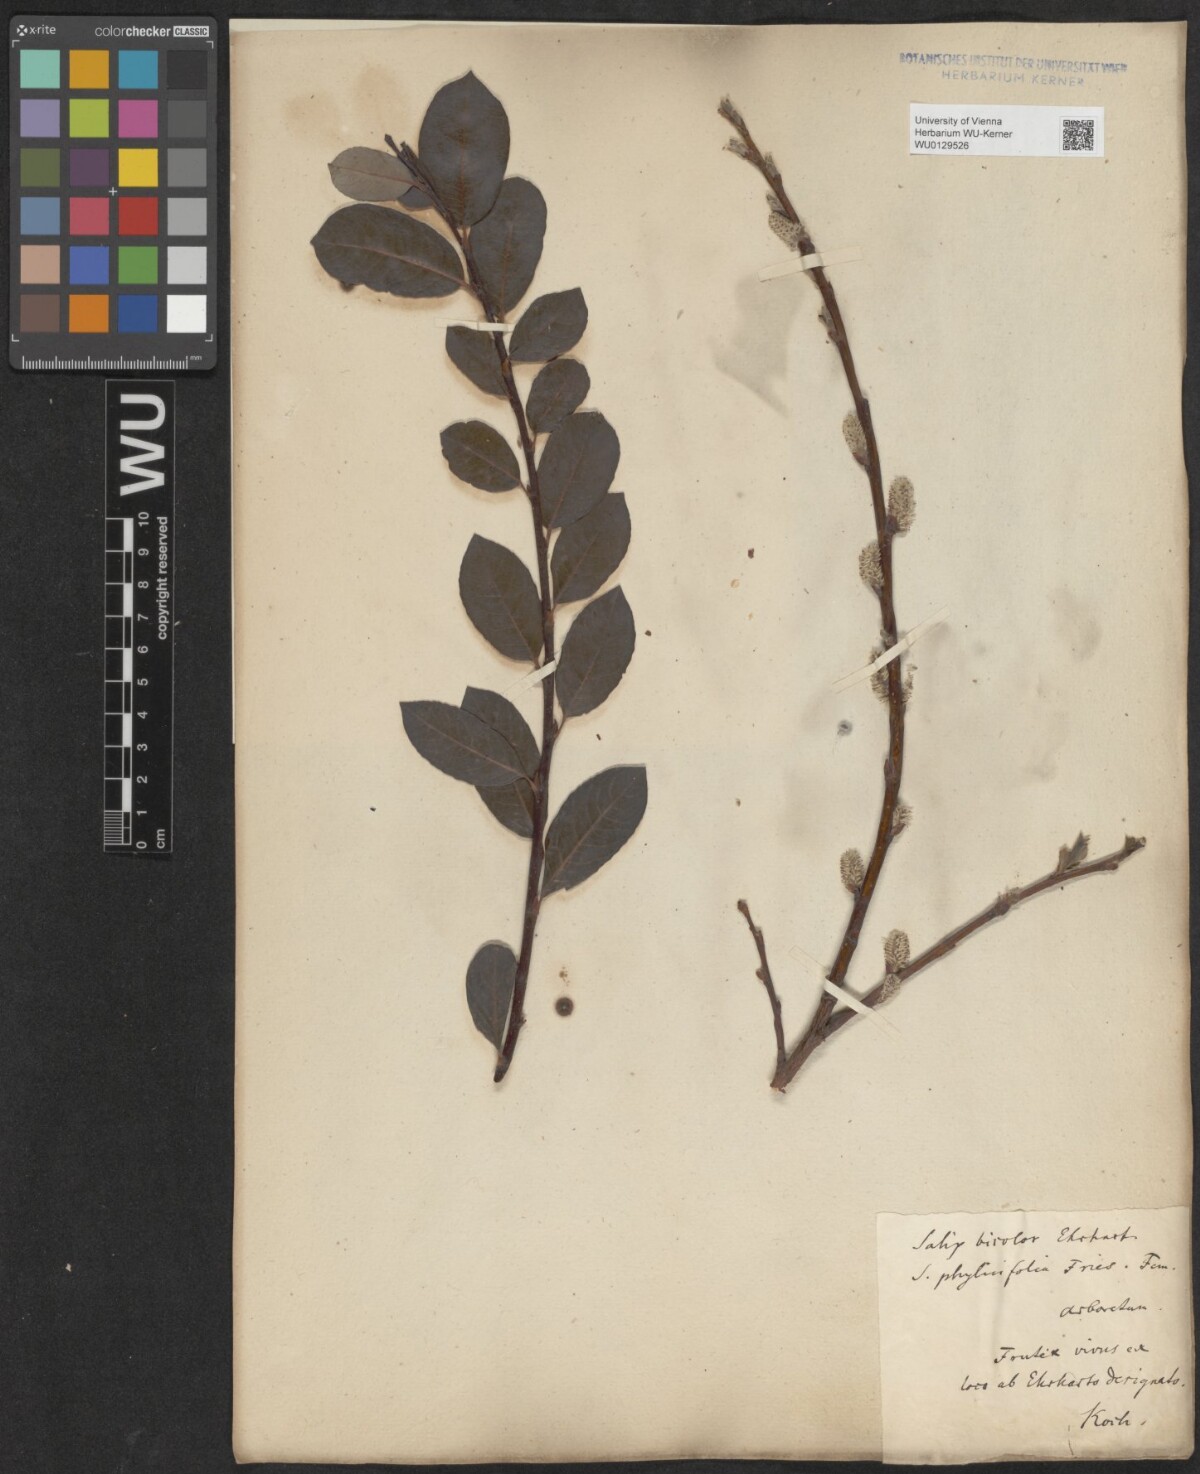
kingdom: Plantae
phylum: Tracheophyta
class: Magnoliopsida
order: Malpighiales
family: Salicaceae
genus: Salix
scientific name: Salix bicolor
